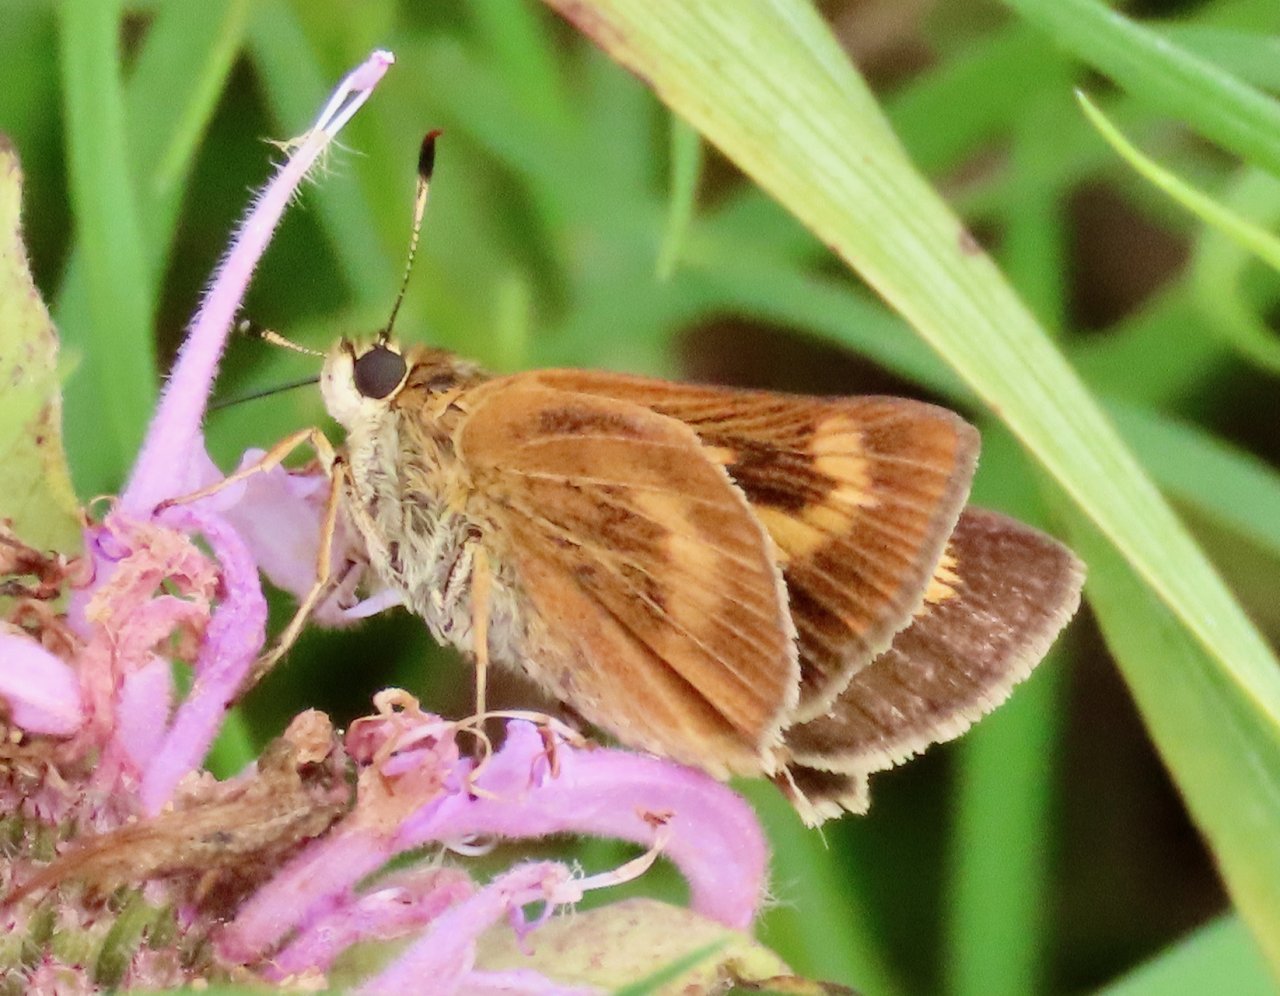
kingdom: Animalia
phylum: Arthropoda
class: Insecta
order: Lepidoptera
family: Hesperiidae
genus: Problema
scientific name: Problema byssus
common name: Byssus Skipper
